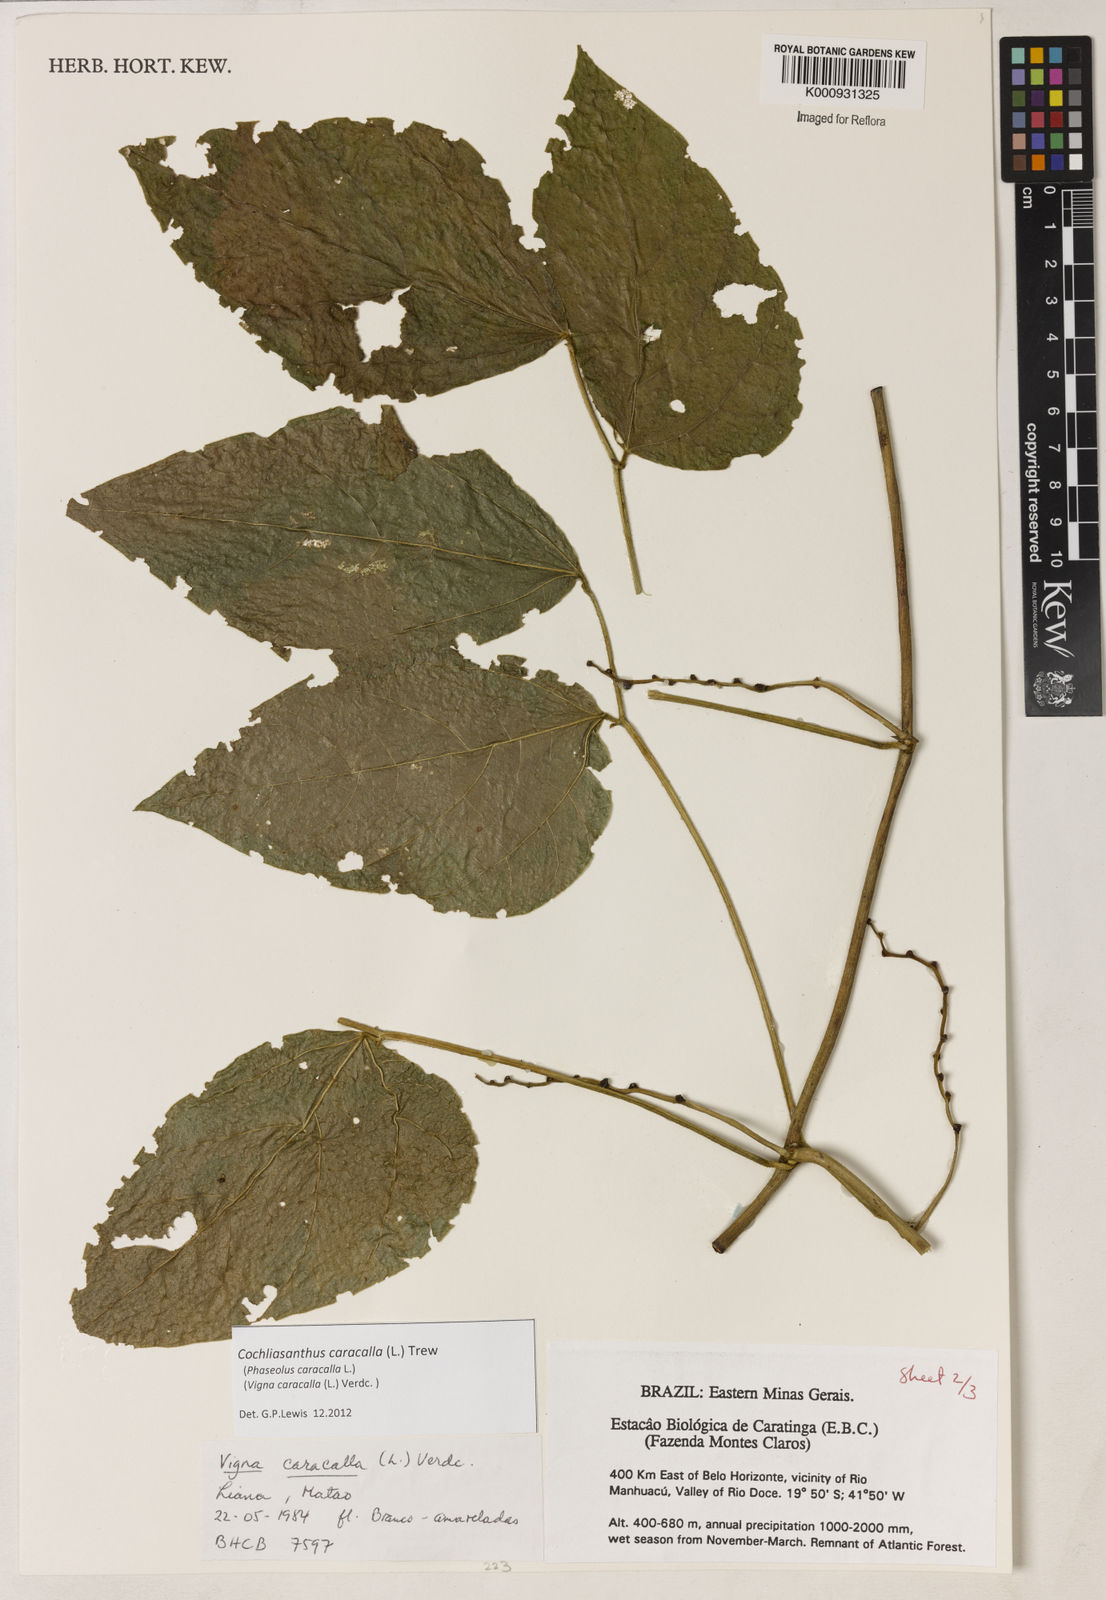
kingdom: Plantae
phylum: Tracheophyta
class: Magnoliopsida
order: Fabales
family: Fabaceae
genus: Cochliasanthus
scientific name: Cochliasanthus caracalla
